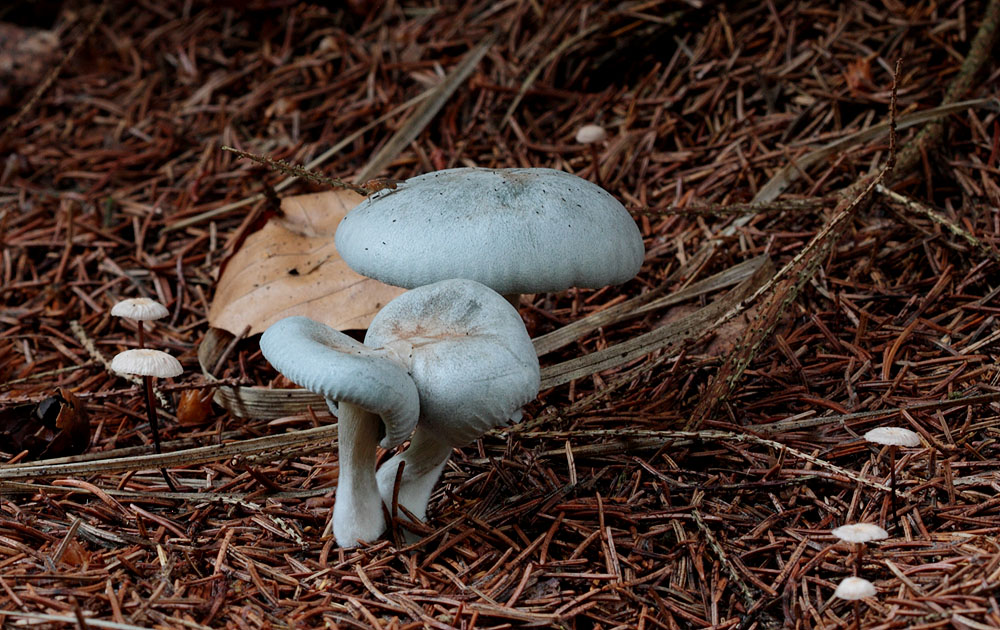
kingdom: Fungi
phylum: Basidiomycota
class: Agaricomycetes
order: Agaricales
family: Tricholomataceae
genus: Clitocybe
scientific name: Clitocybe odora
